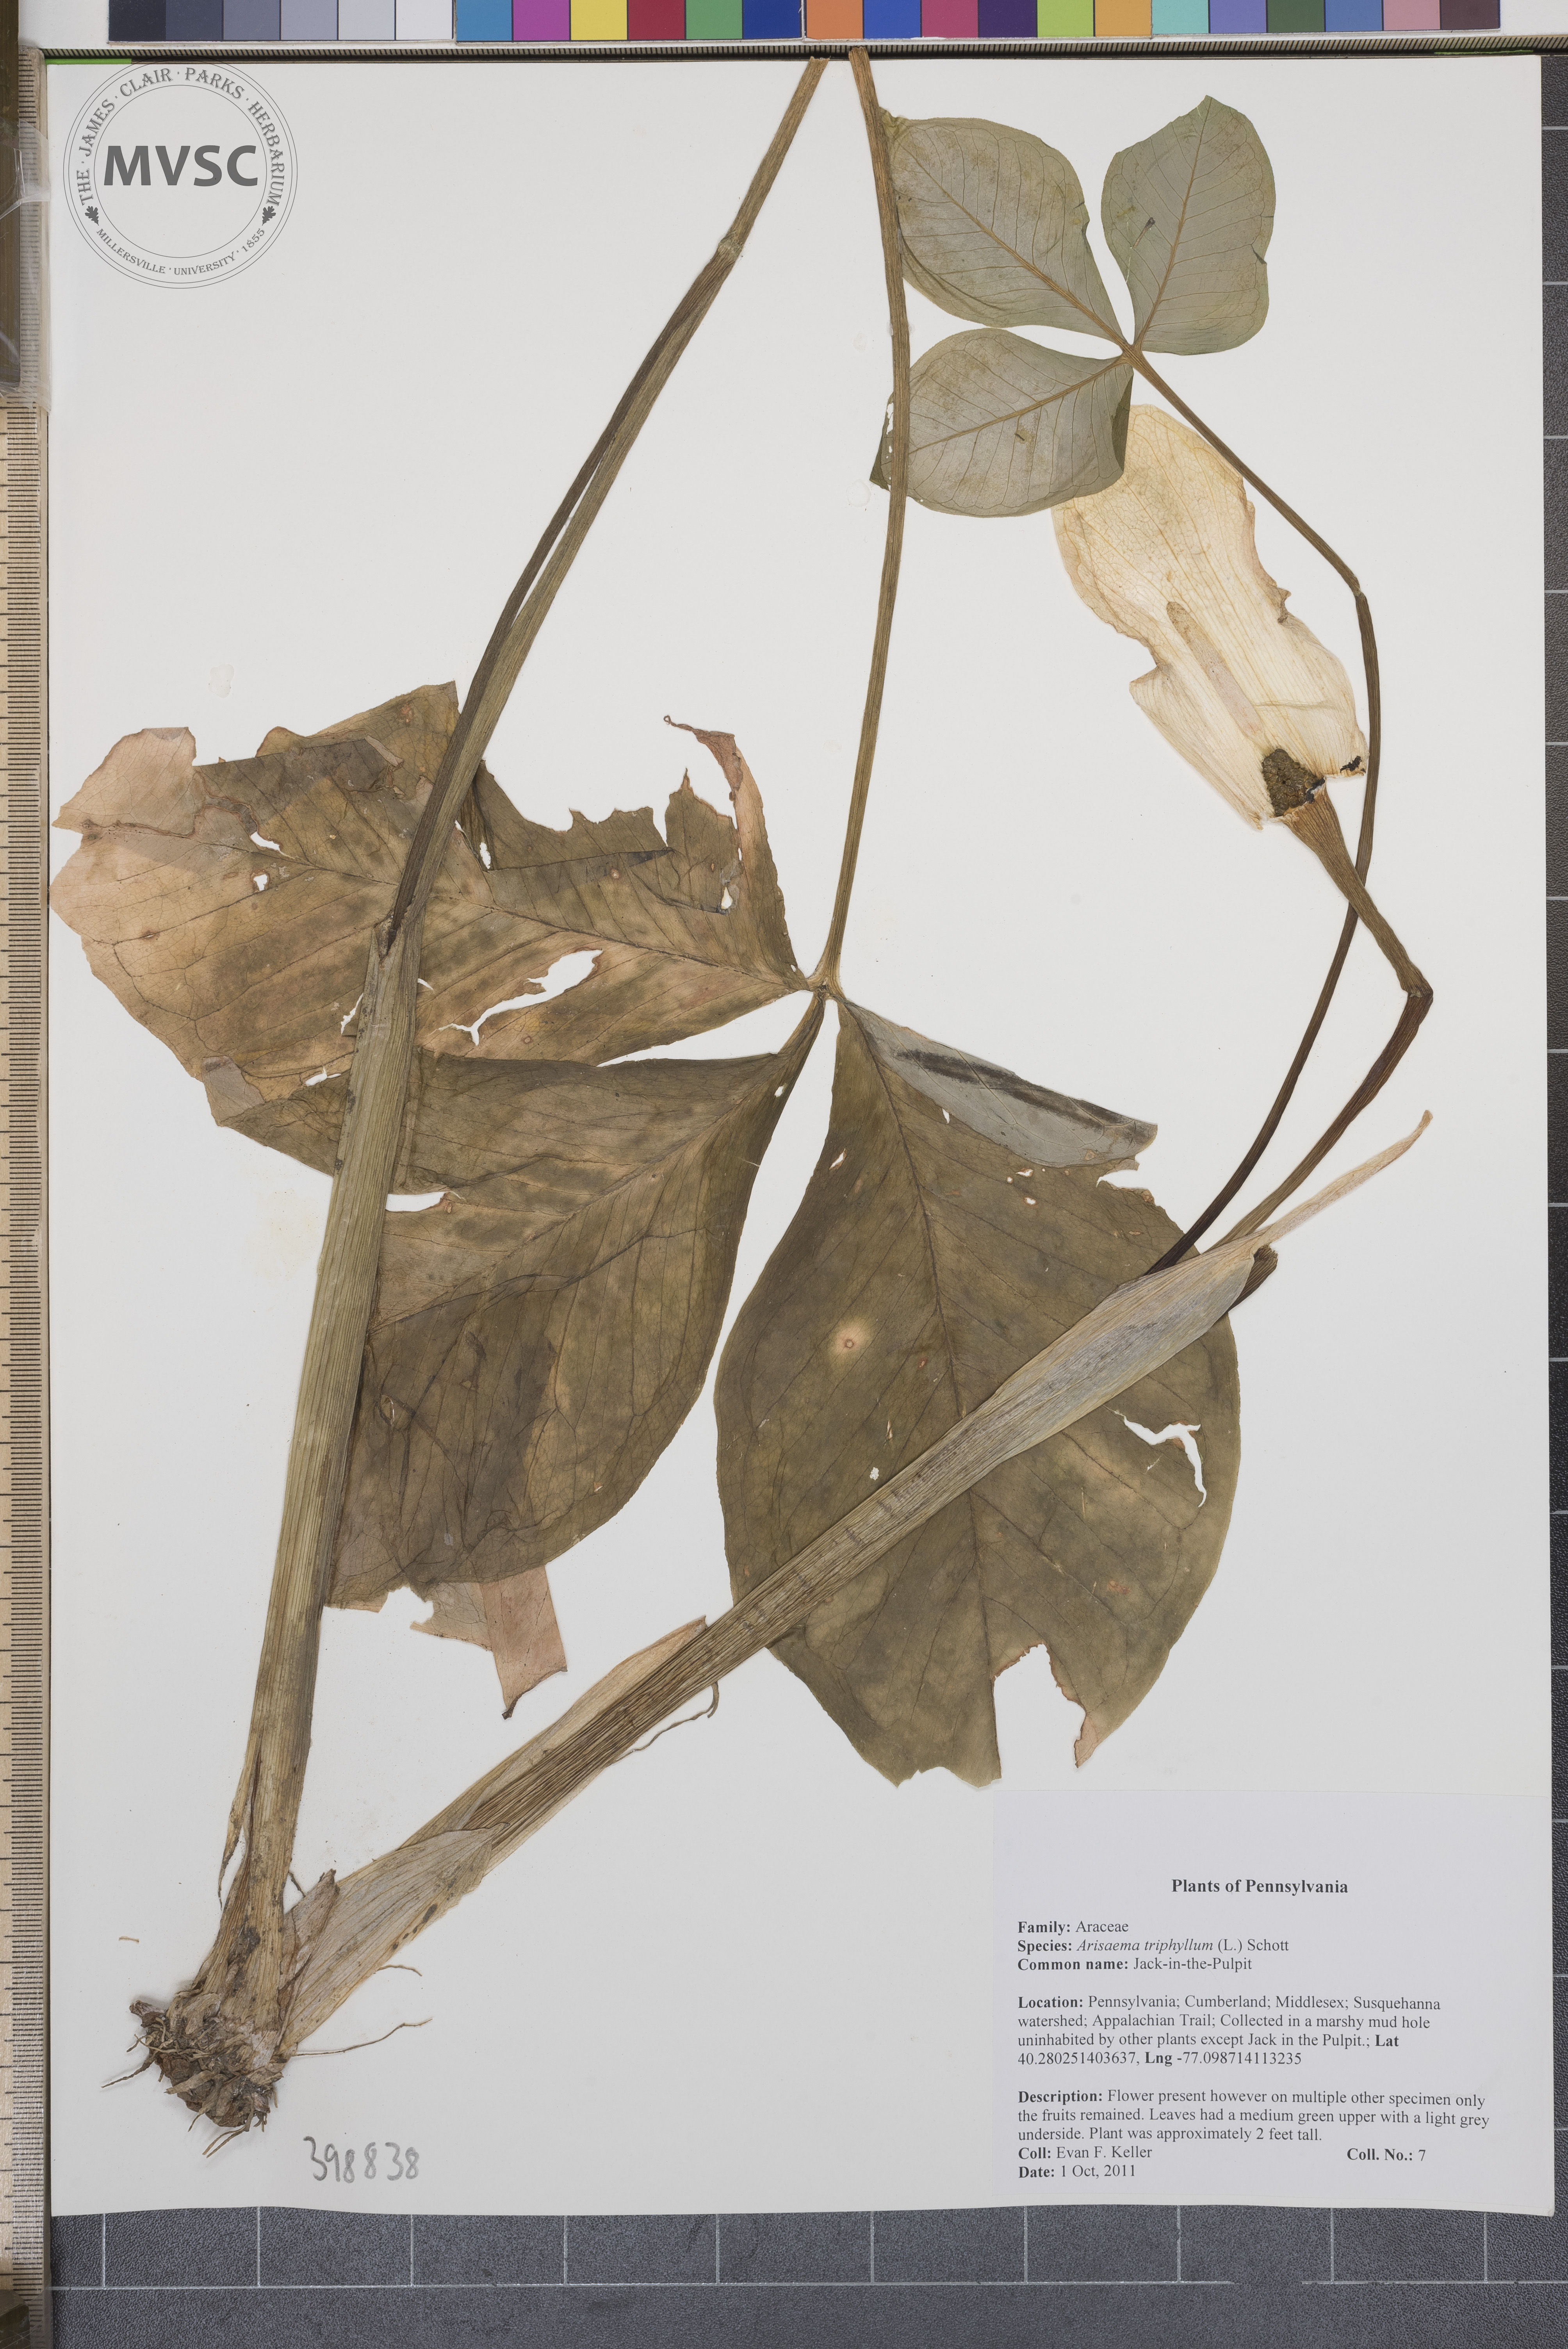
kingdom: Plantae
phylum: Tracheophyta
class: Liliopsida
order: Alismatales
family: Araceae
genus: Arisaema
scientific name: Arisaema triphyllum
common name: Green-dragon
